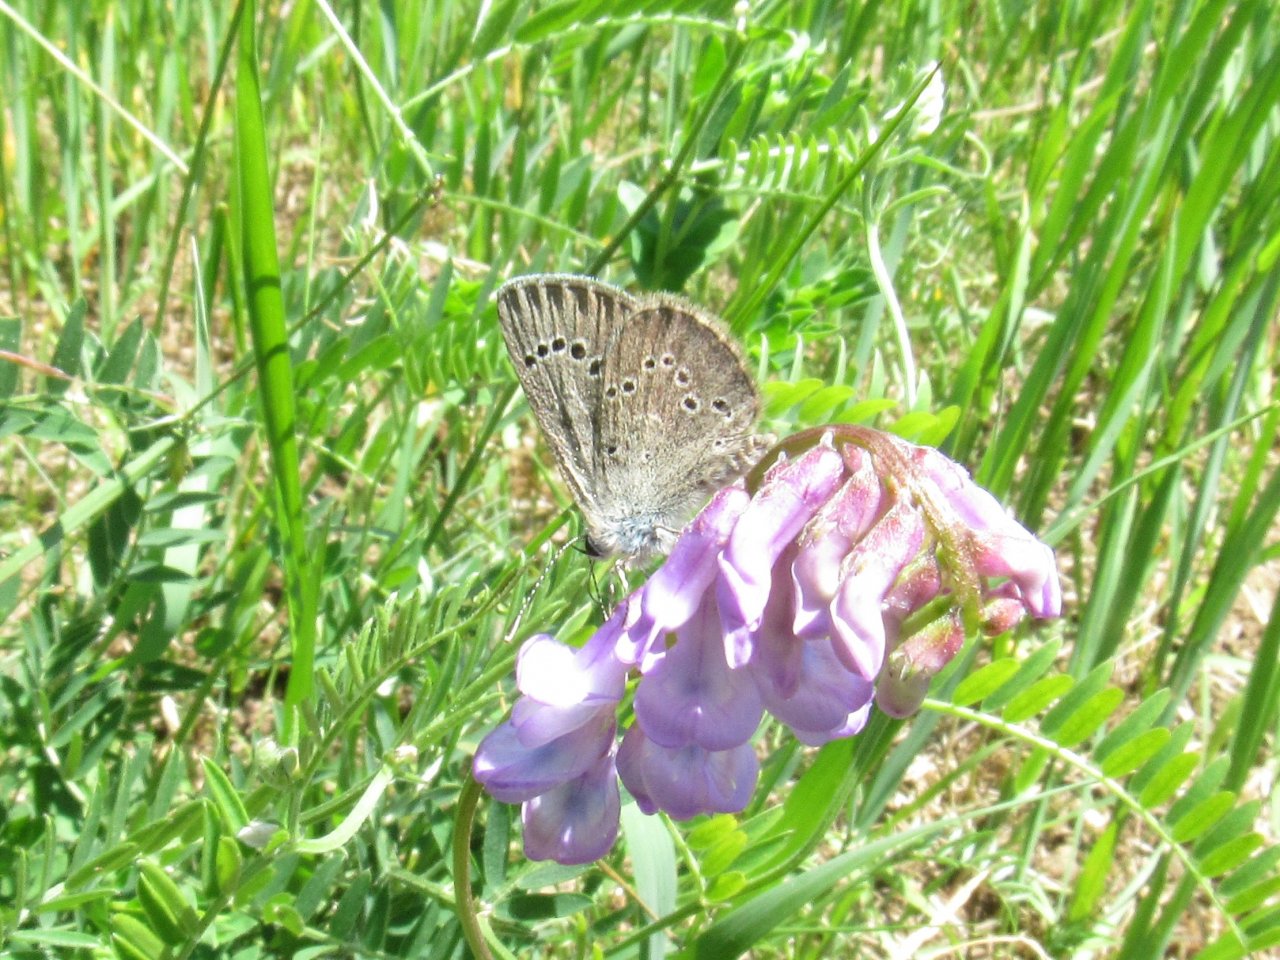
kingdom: Animalia
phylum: Arthropoda
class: Insecta
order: Lepidoptera
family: Lycaenidae
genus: Glaucopsyche
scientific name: Glaucopsyche lygdamus
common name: Silvery Blue
